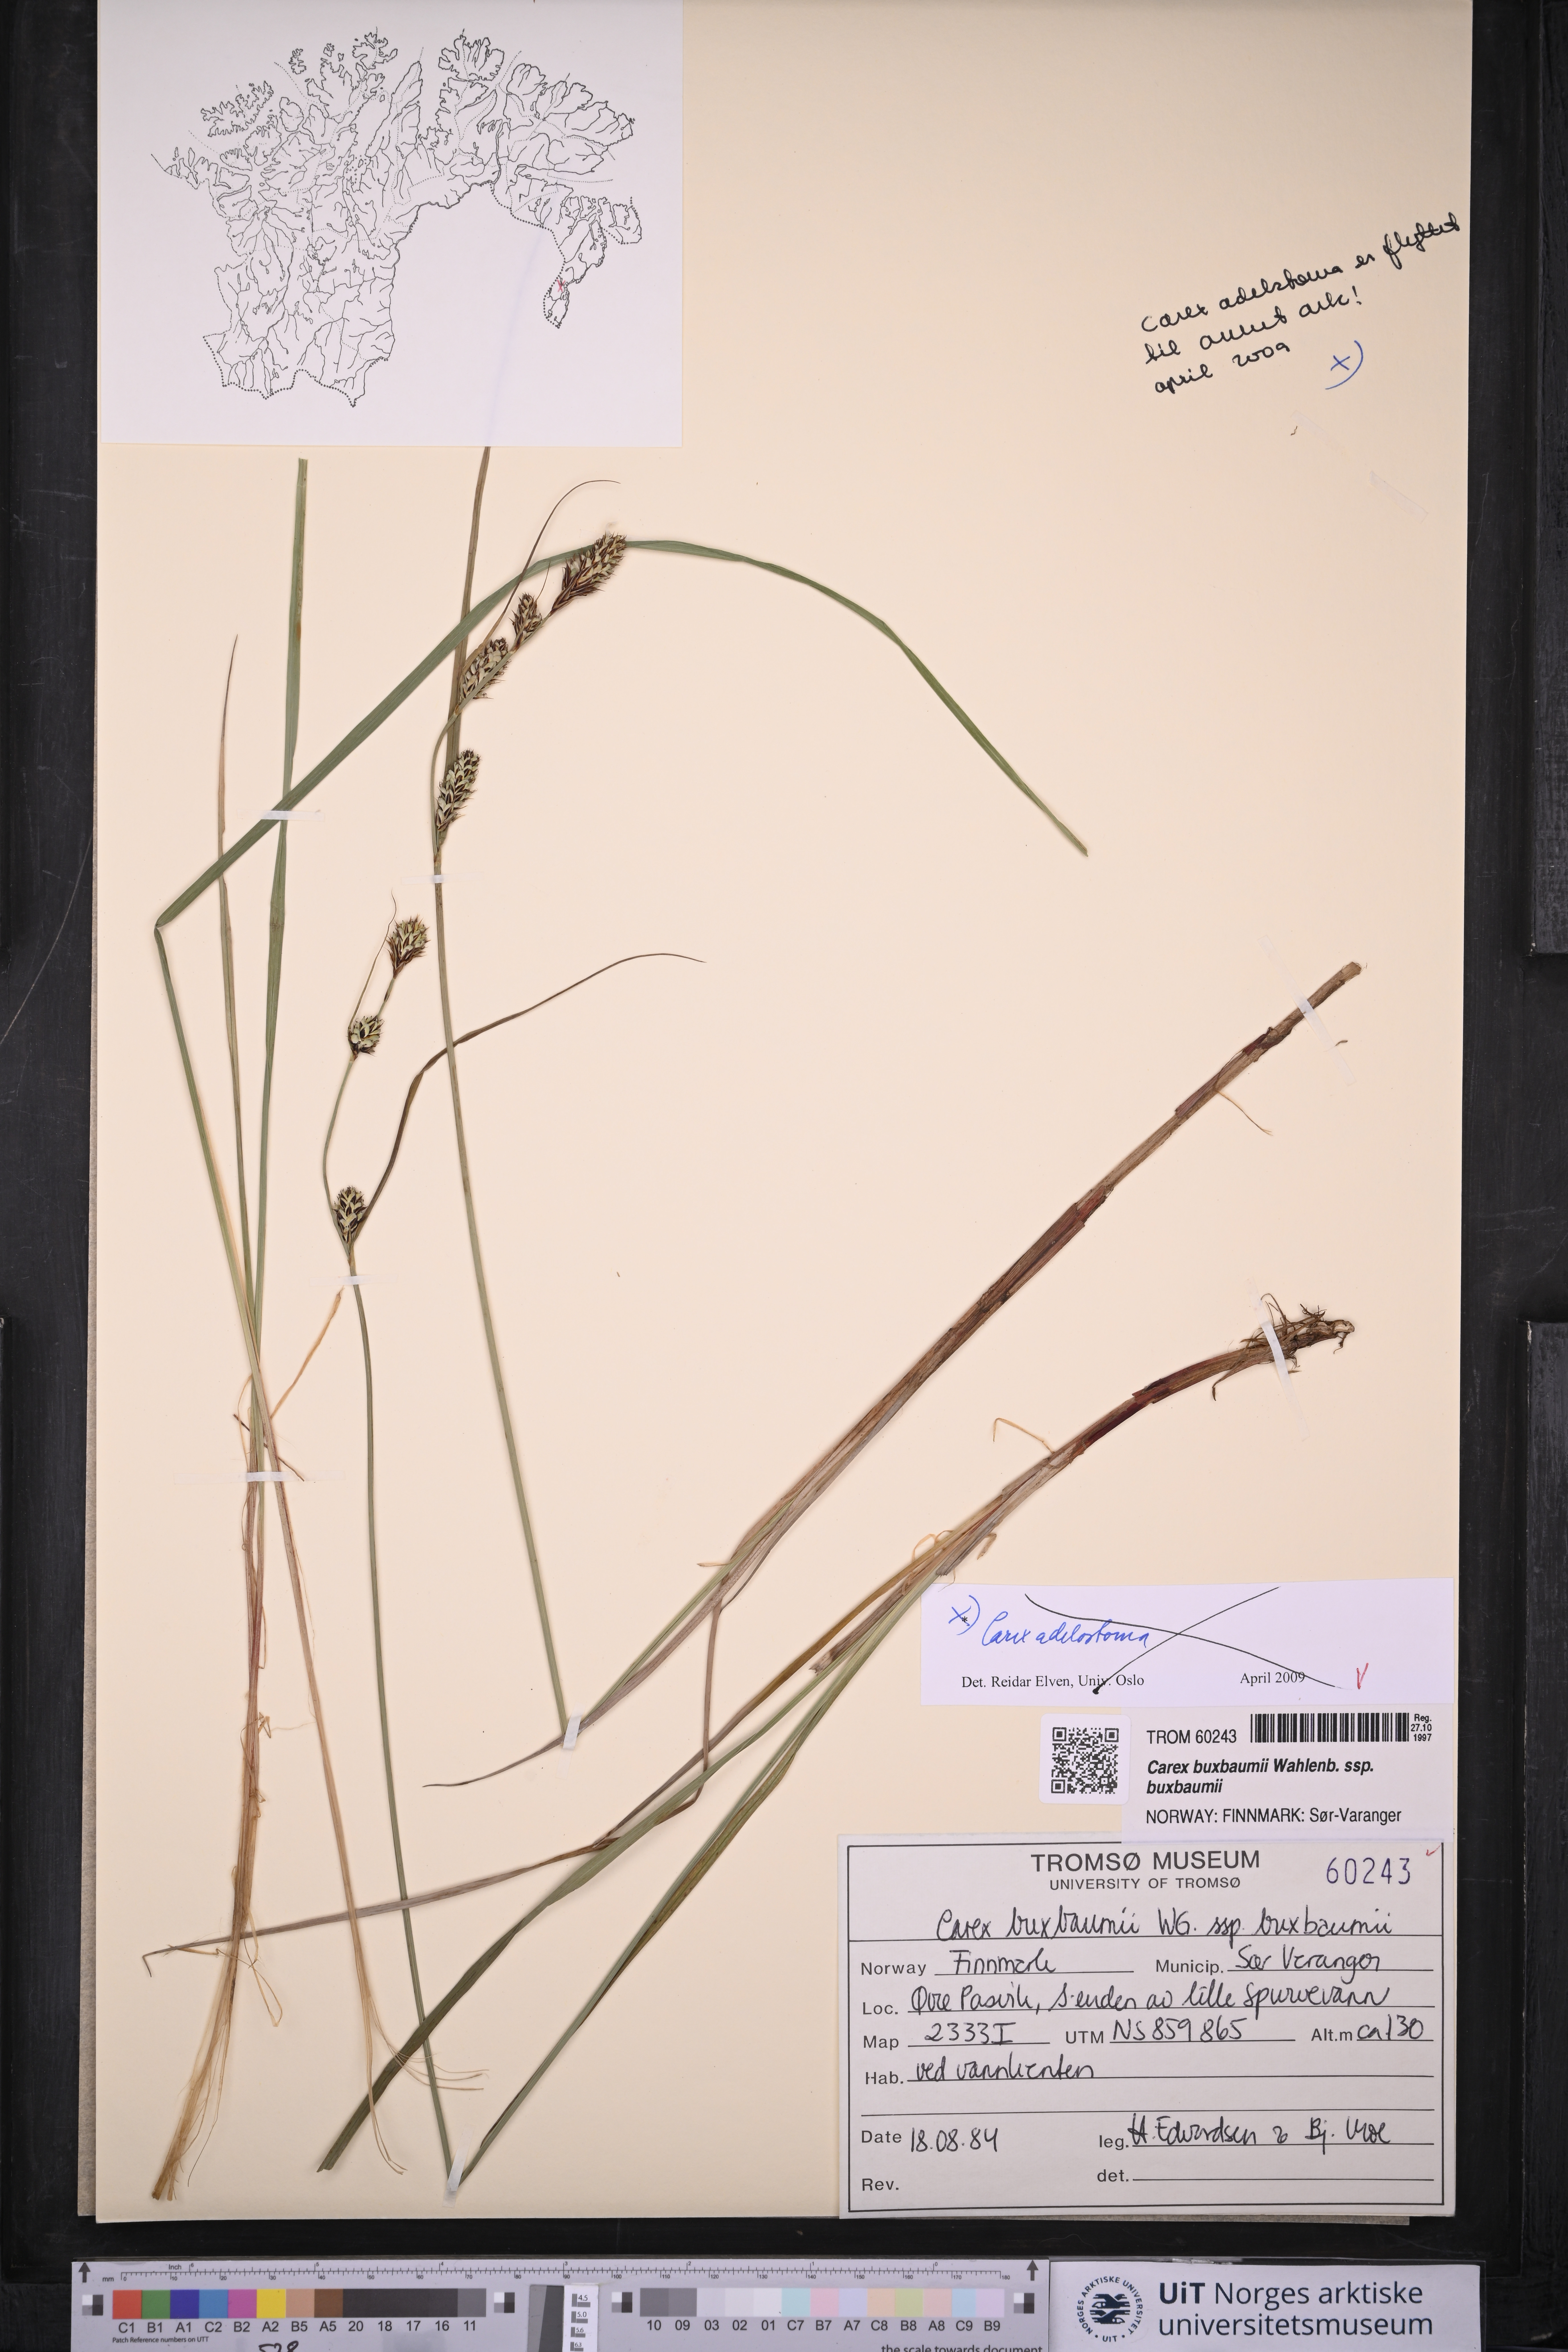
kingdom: Plantae
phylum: Tracheophyta
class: Liliopsida
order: Poales
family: Cyperaceae
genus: Carex
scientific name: Carex buxbaumii
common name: Club sedge
